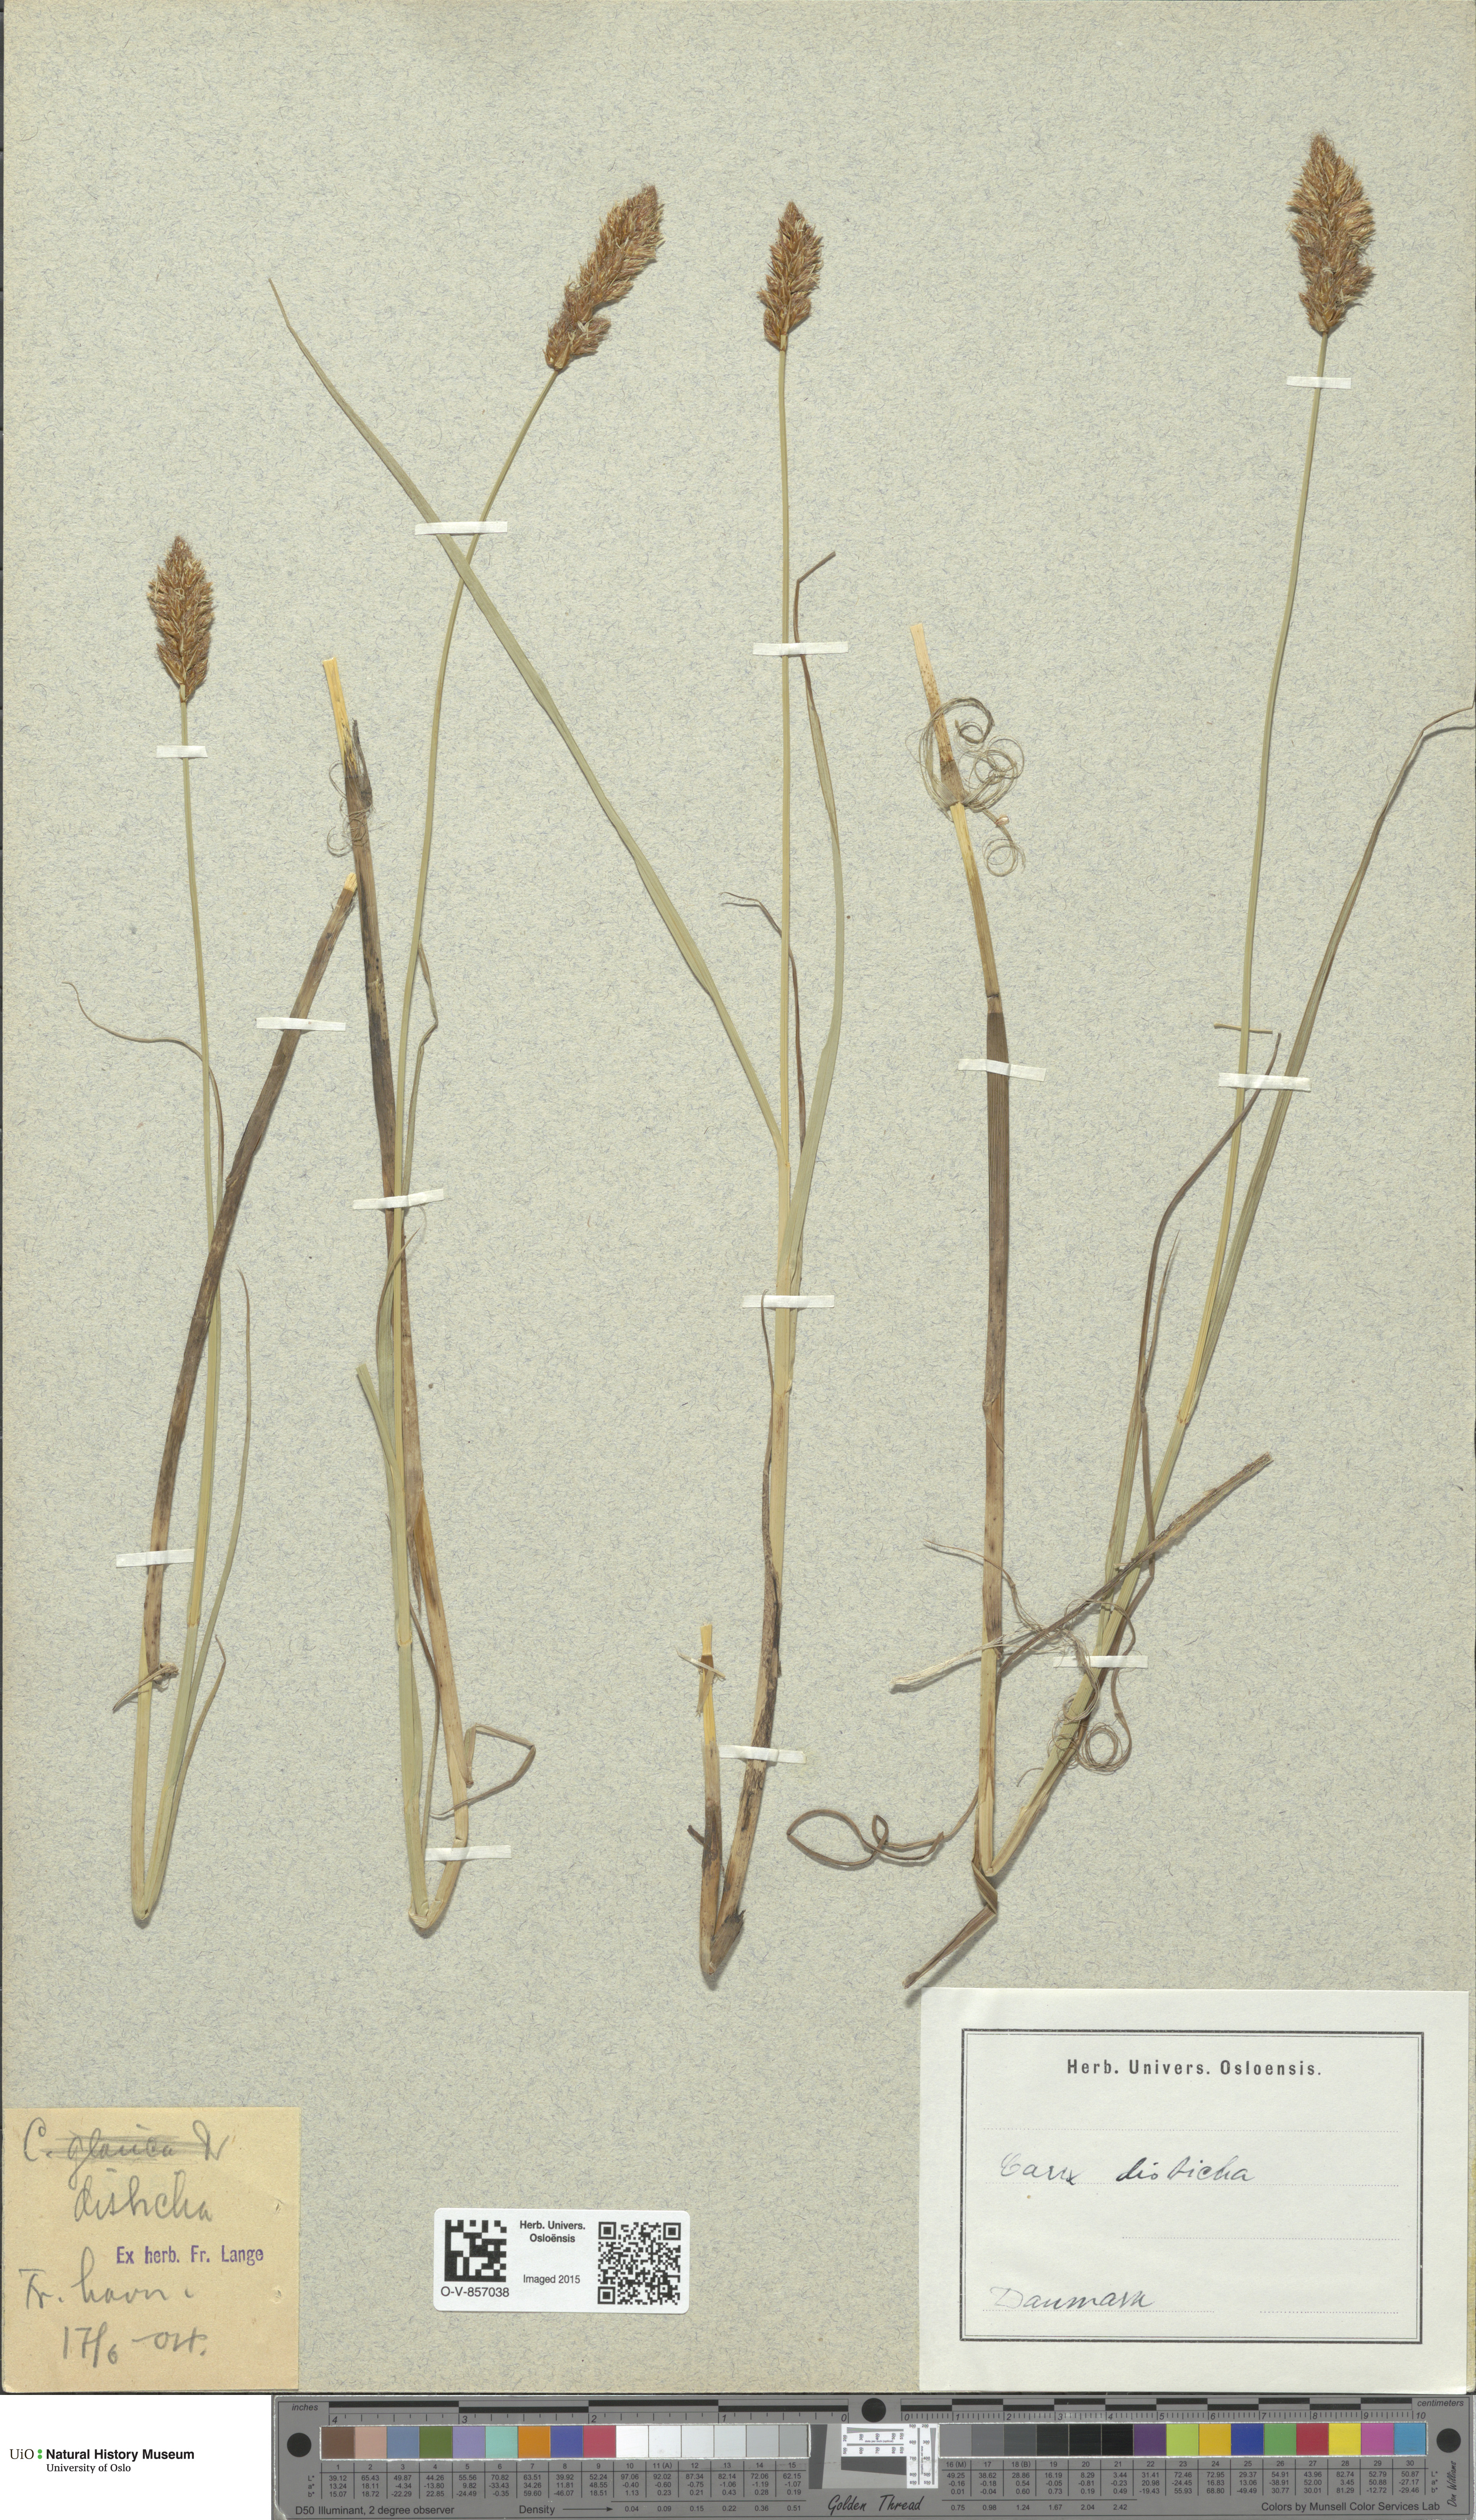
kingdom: Plantae
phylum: Tracheophyta
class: Liliopsida
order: Poales
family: Cyperaceae
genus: Carex
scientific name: Carex disticha
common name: Brown sedge
